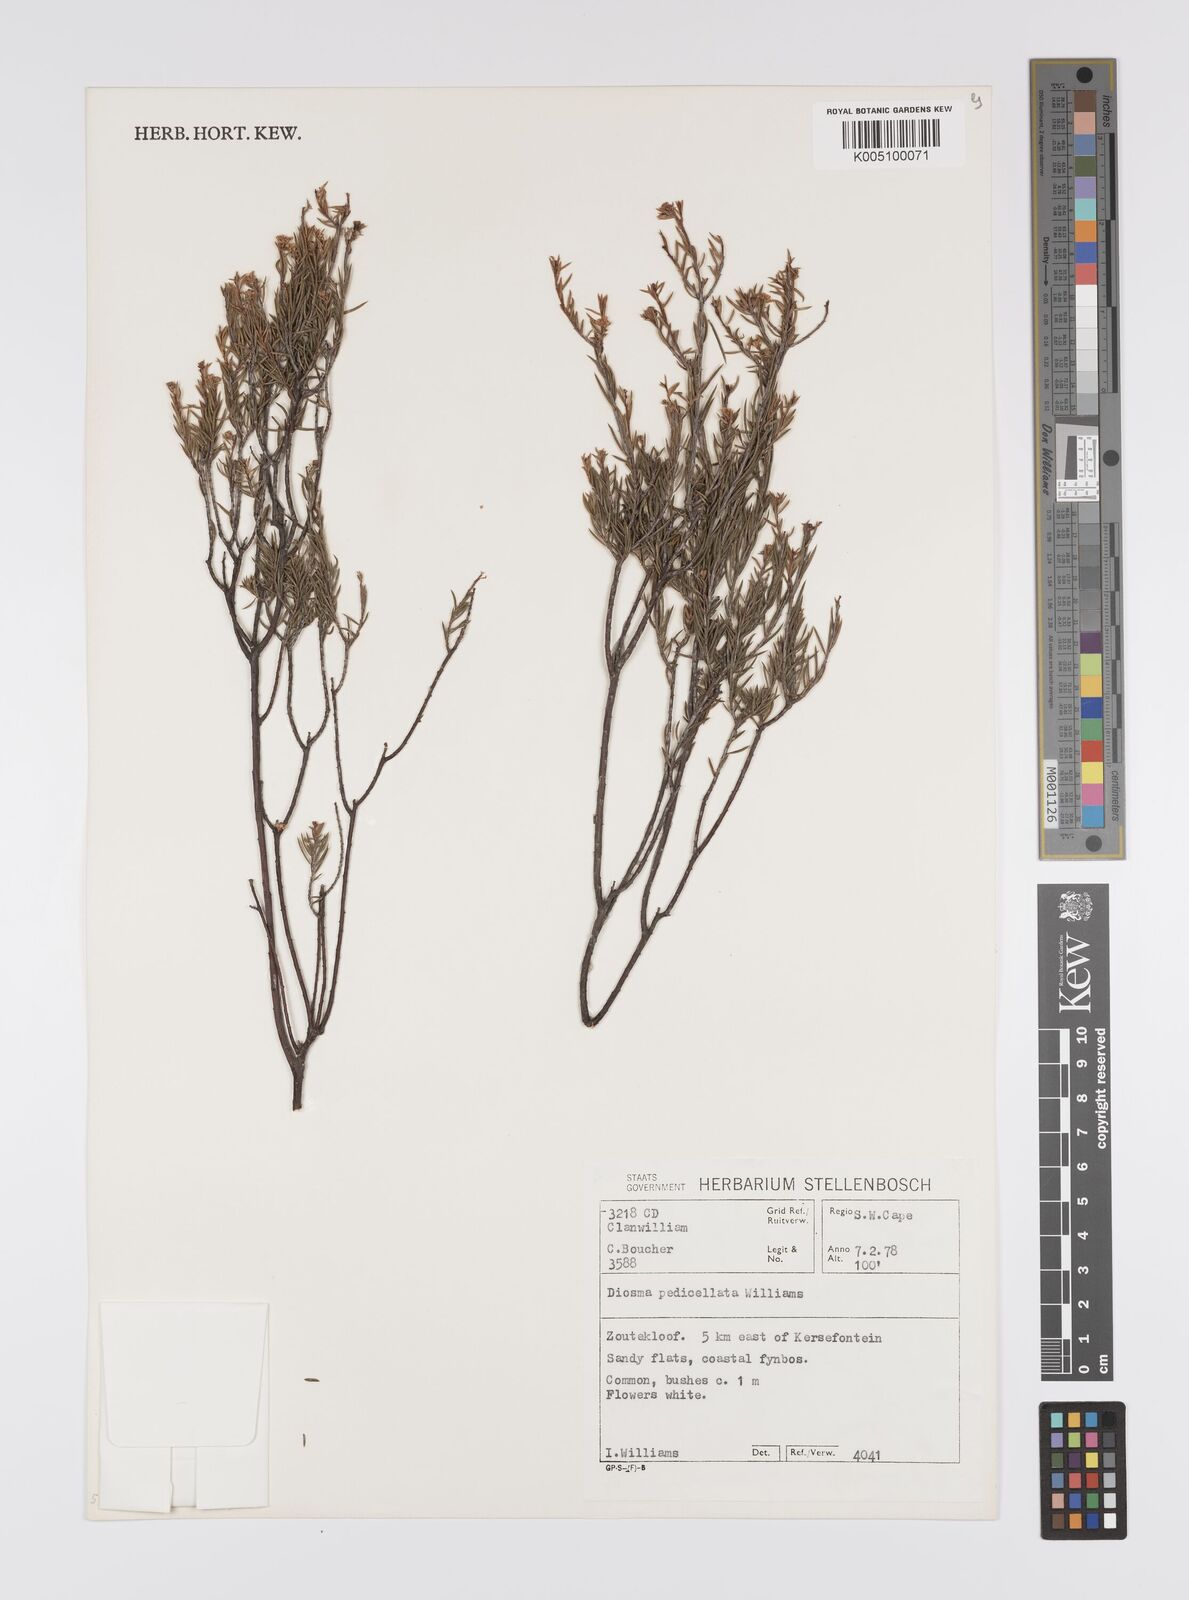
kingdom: Plantae
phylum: Tracheophyta
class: Magnoliopsida
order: Sapindales
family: Rutaceae
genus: Diosma
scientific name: Diosma pedicellata
